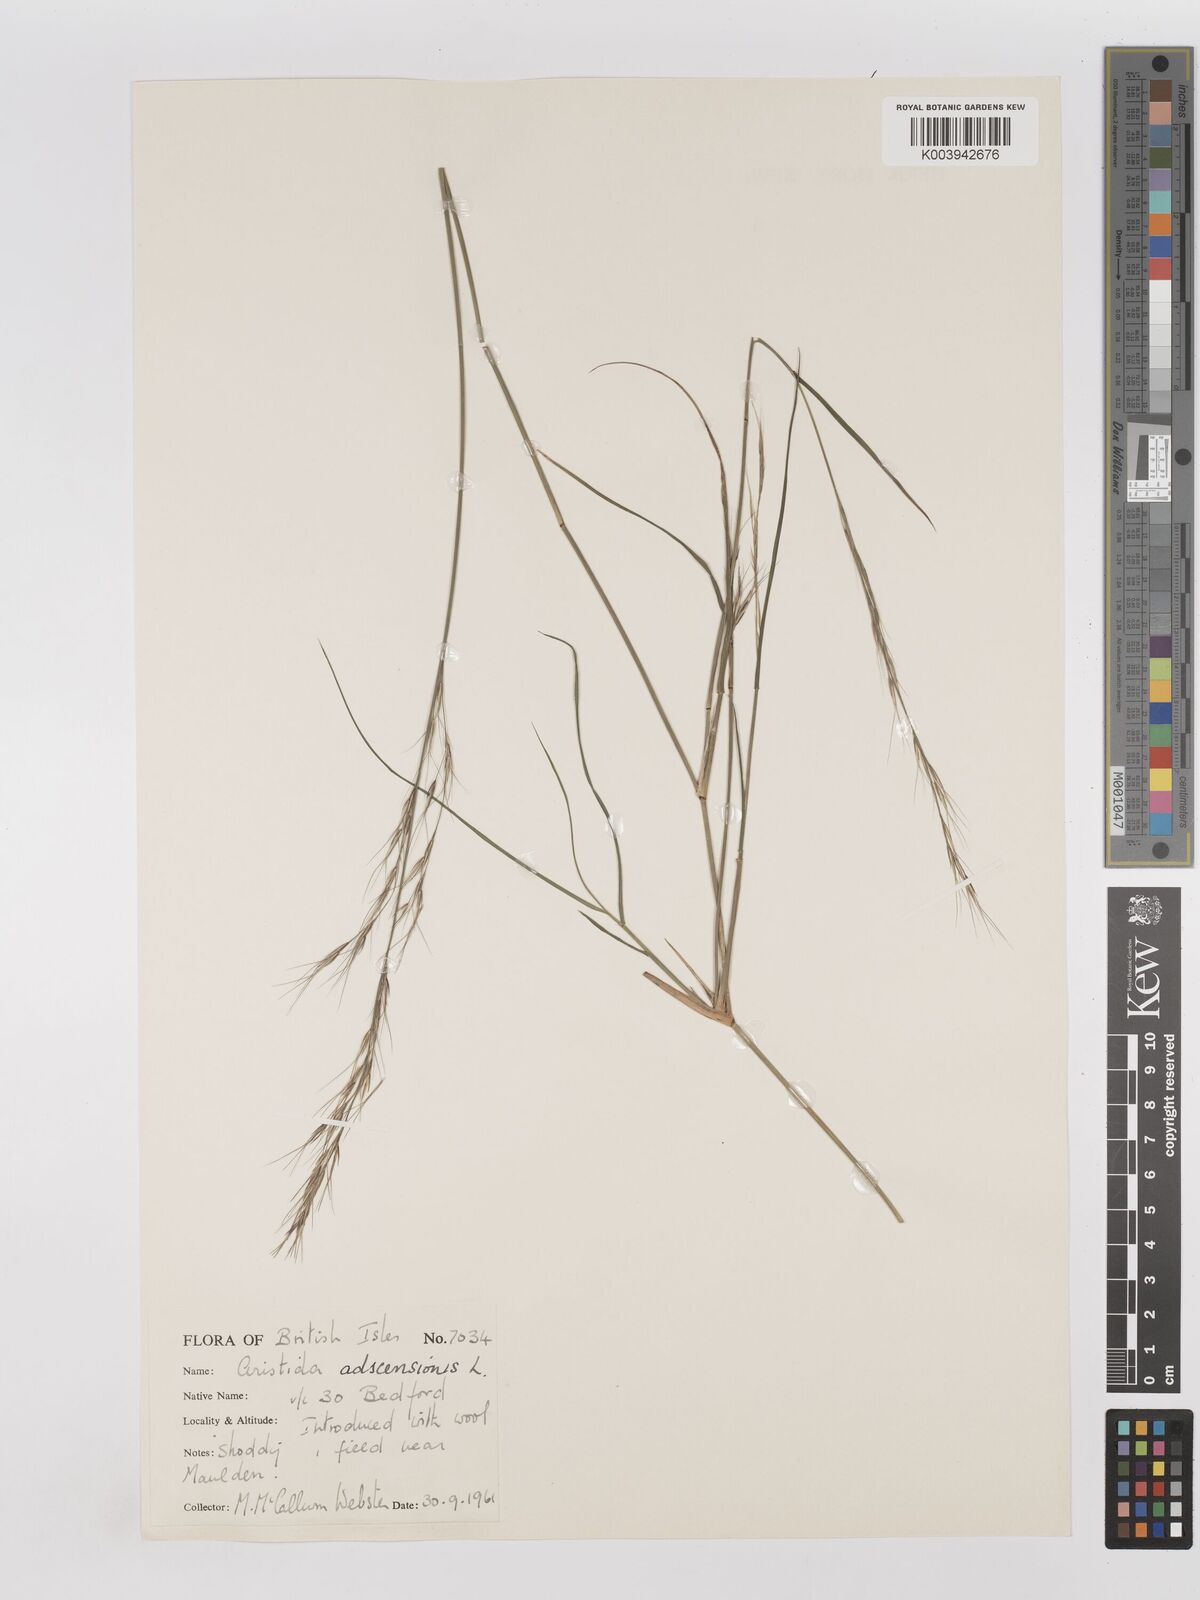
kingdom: Plantae
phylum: Tracheophyta
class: Liliopsida
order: Poales
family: Poaceae
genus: Aristida
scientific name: Aristida adscensionis
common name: Sixweeks threeawn
